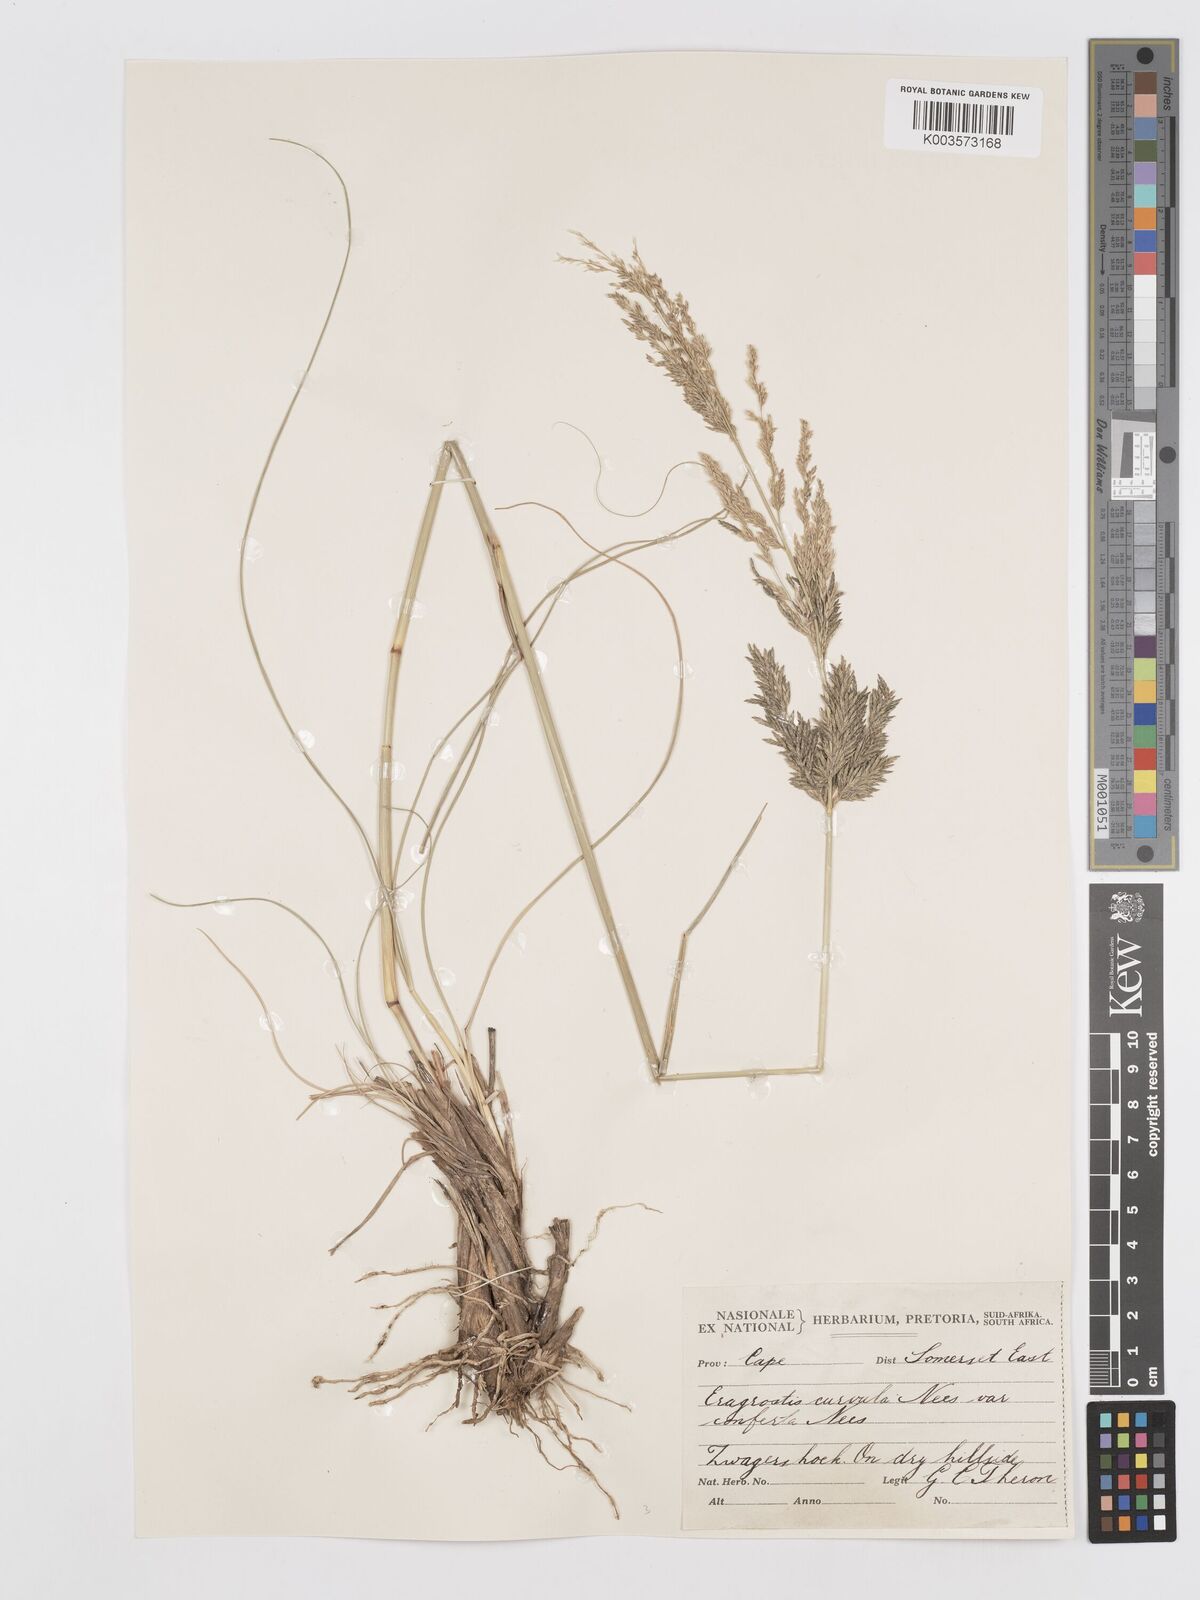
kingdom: Plantae
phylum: Tracheophyta
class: Liliopsida
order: Poales
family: Poaceae
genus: Eragrostis
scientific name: Eragrostis curvula
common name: African love-grass
